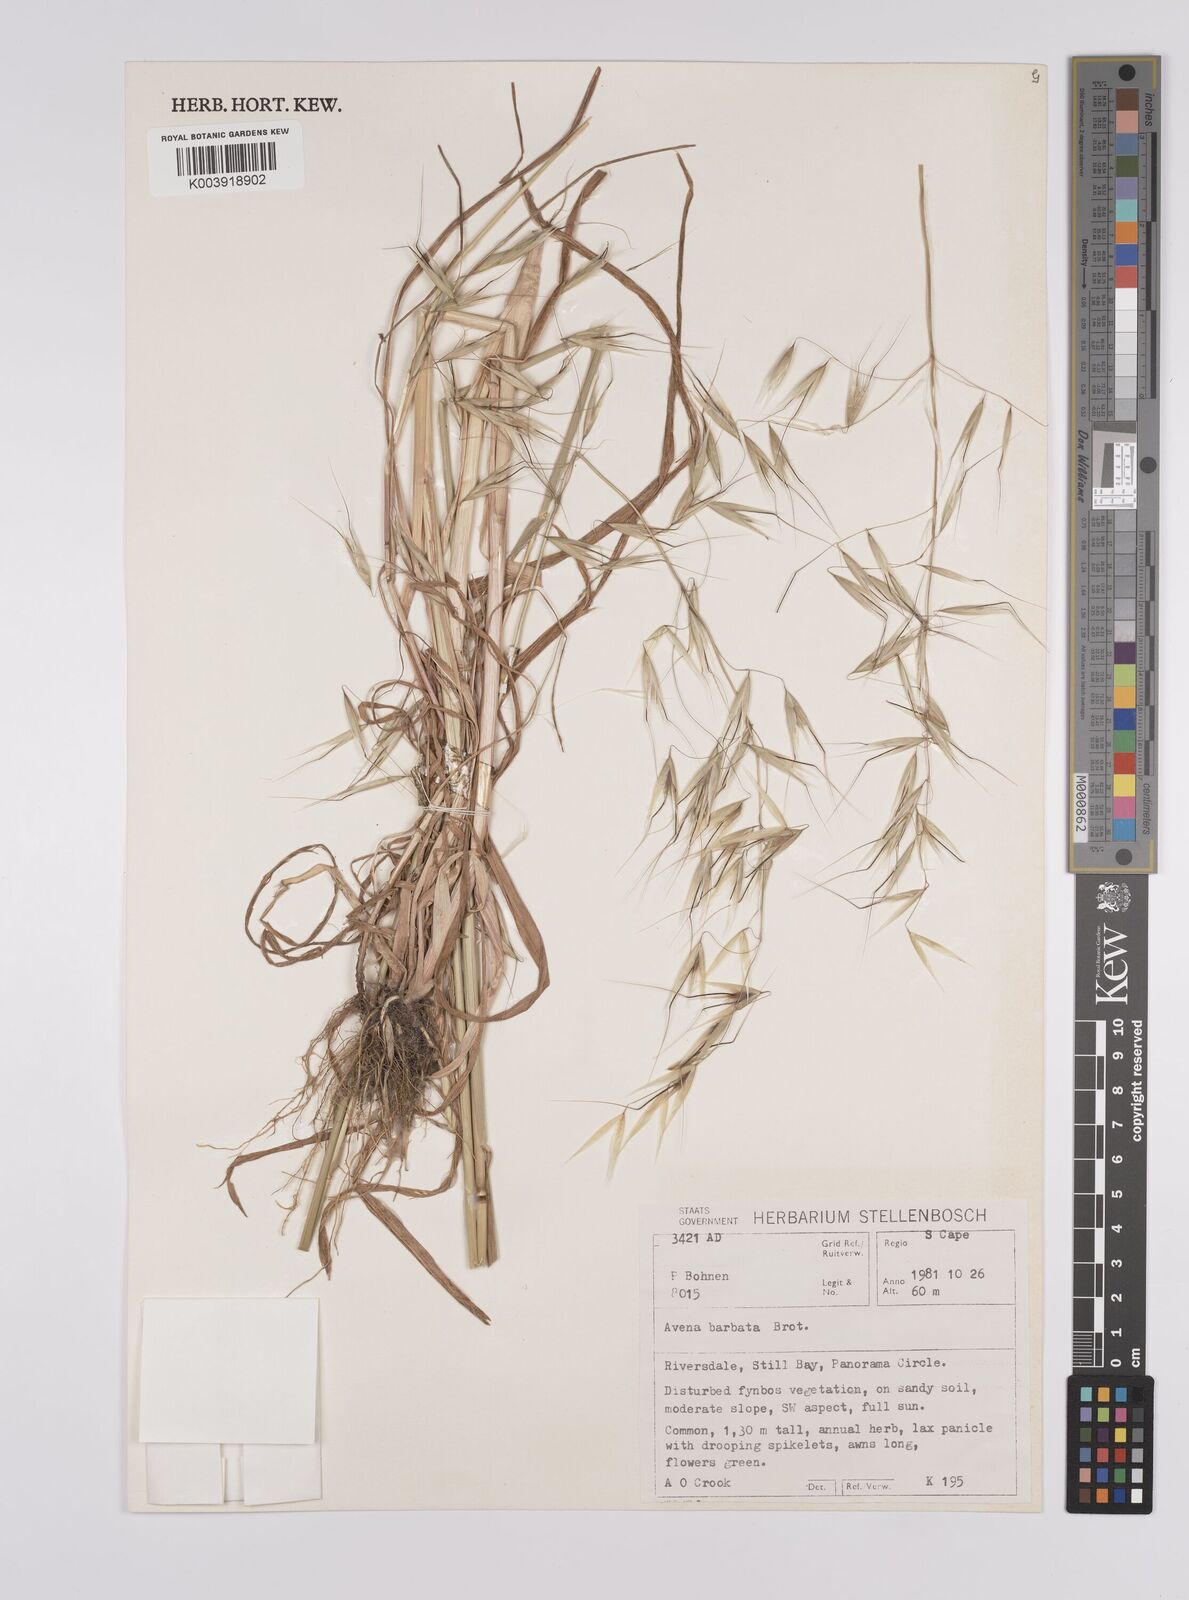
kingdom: Plantae
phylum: Tracheophyta
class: Liliopsida
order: Poales
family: Poaceae
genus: Avena
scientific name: Avena
